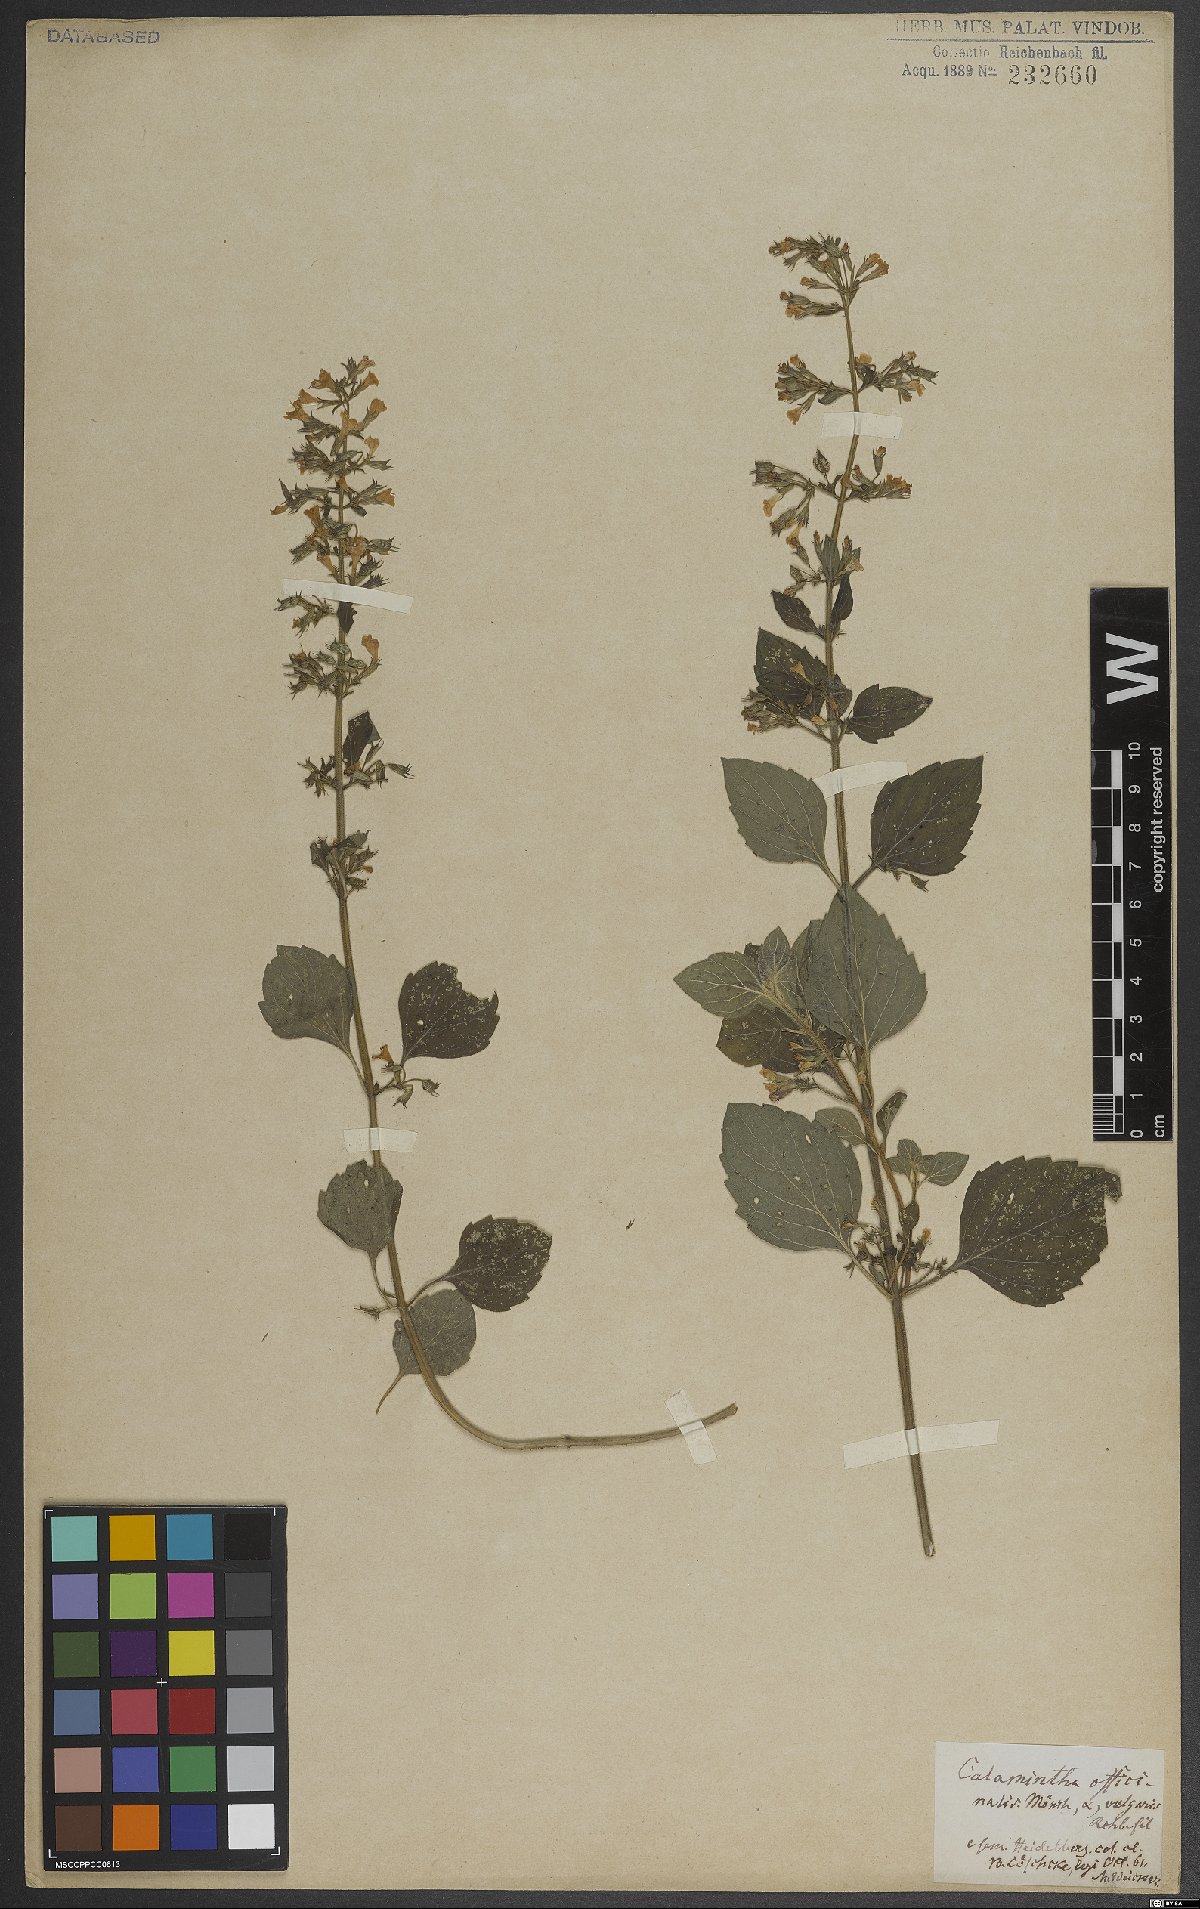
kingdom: Plantae
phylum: Tracheophyta
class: Magnoliopsida
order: Lamiales
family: Lamiaceae
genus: Clinopodium
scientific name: Clinopodium nepeta
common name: Lesser calamint
